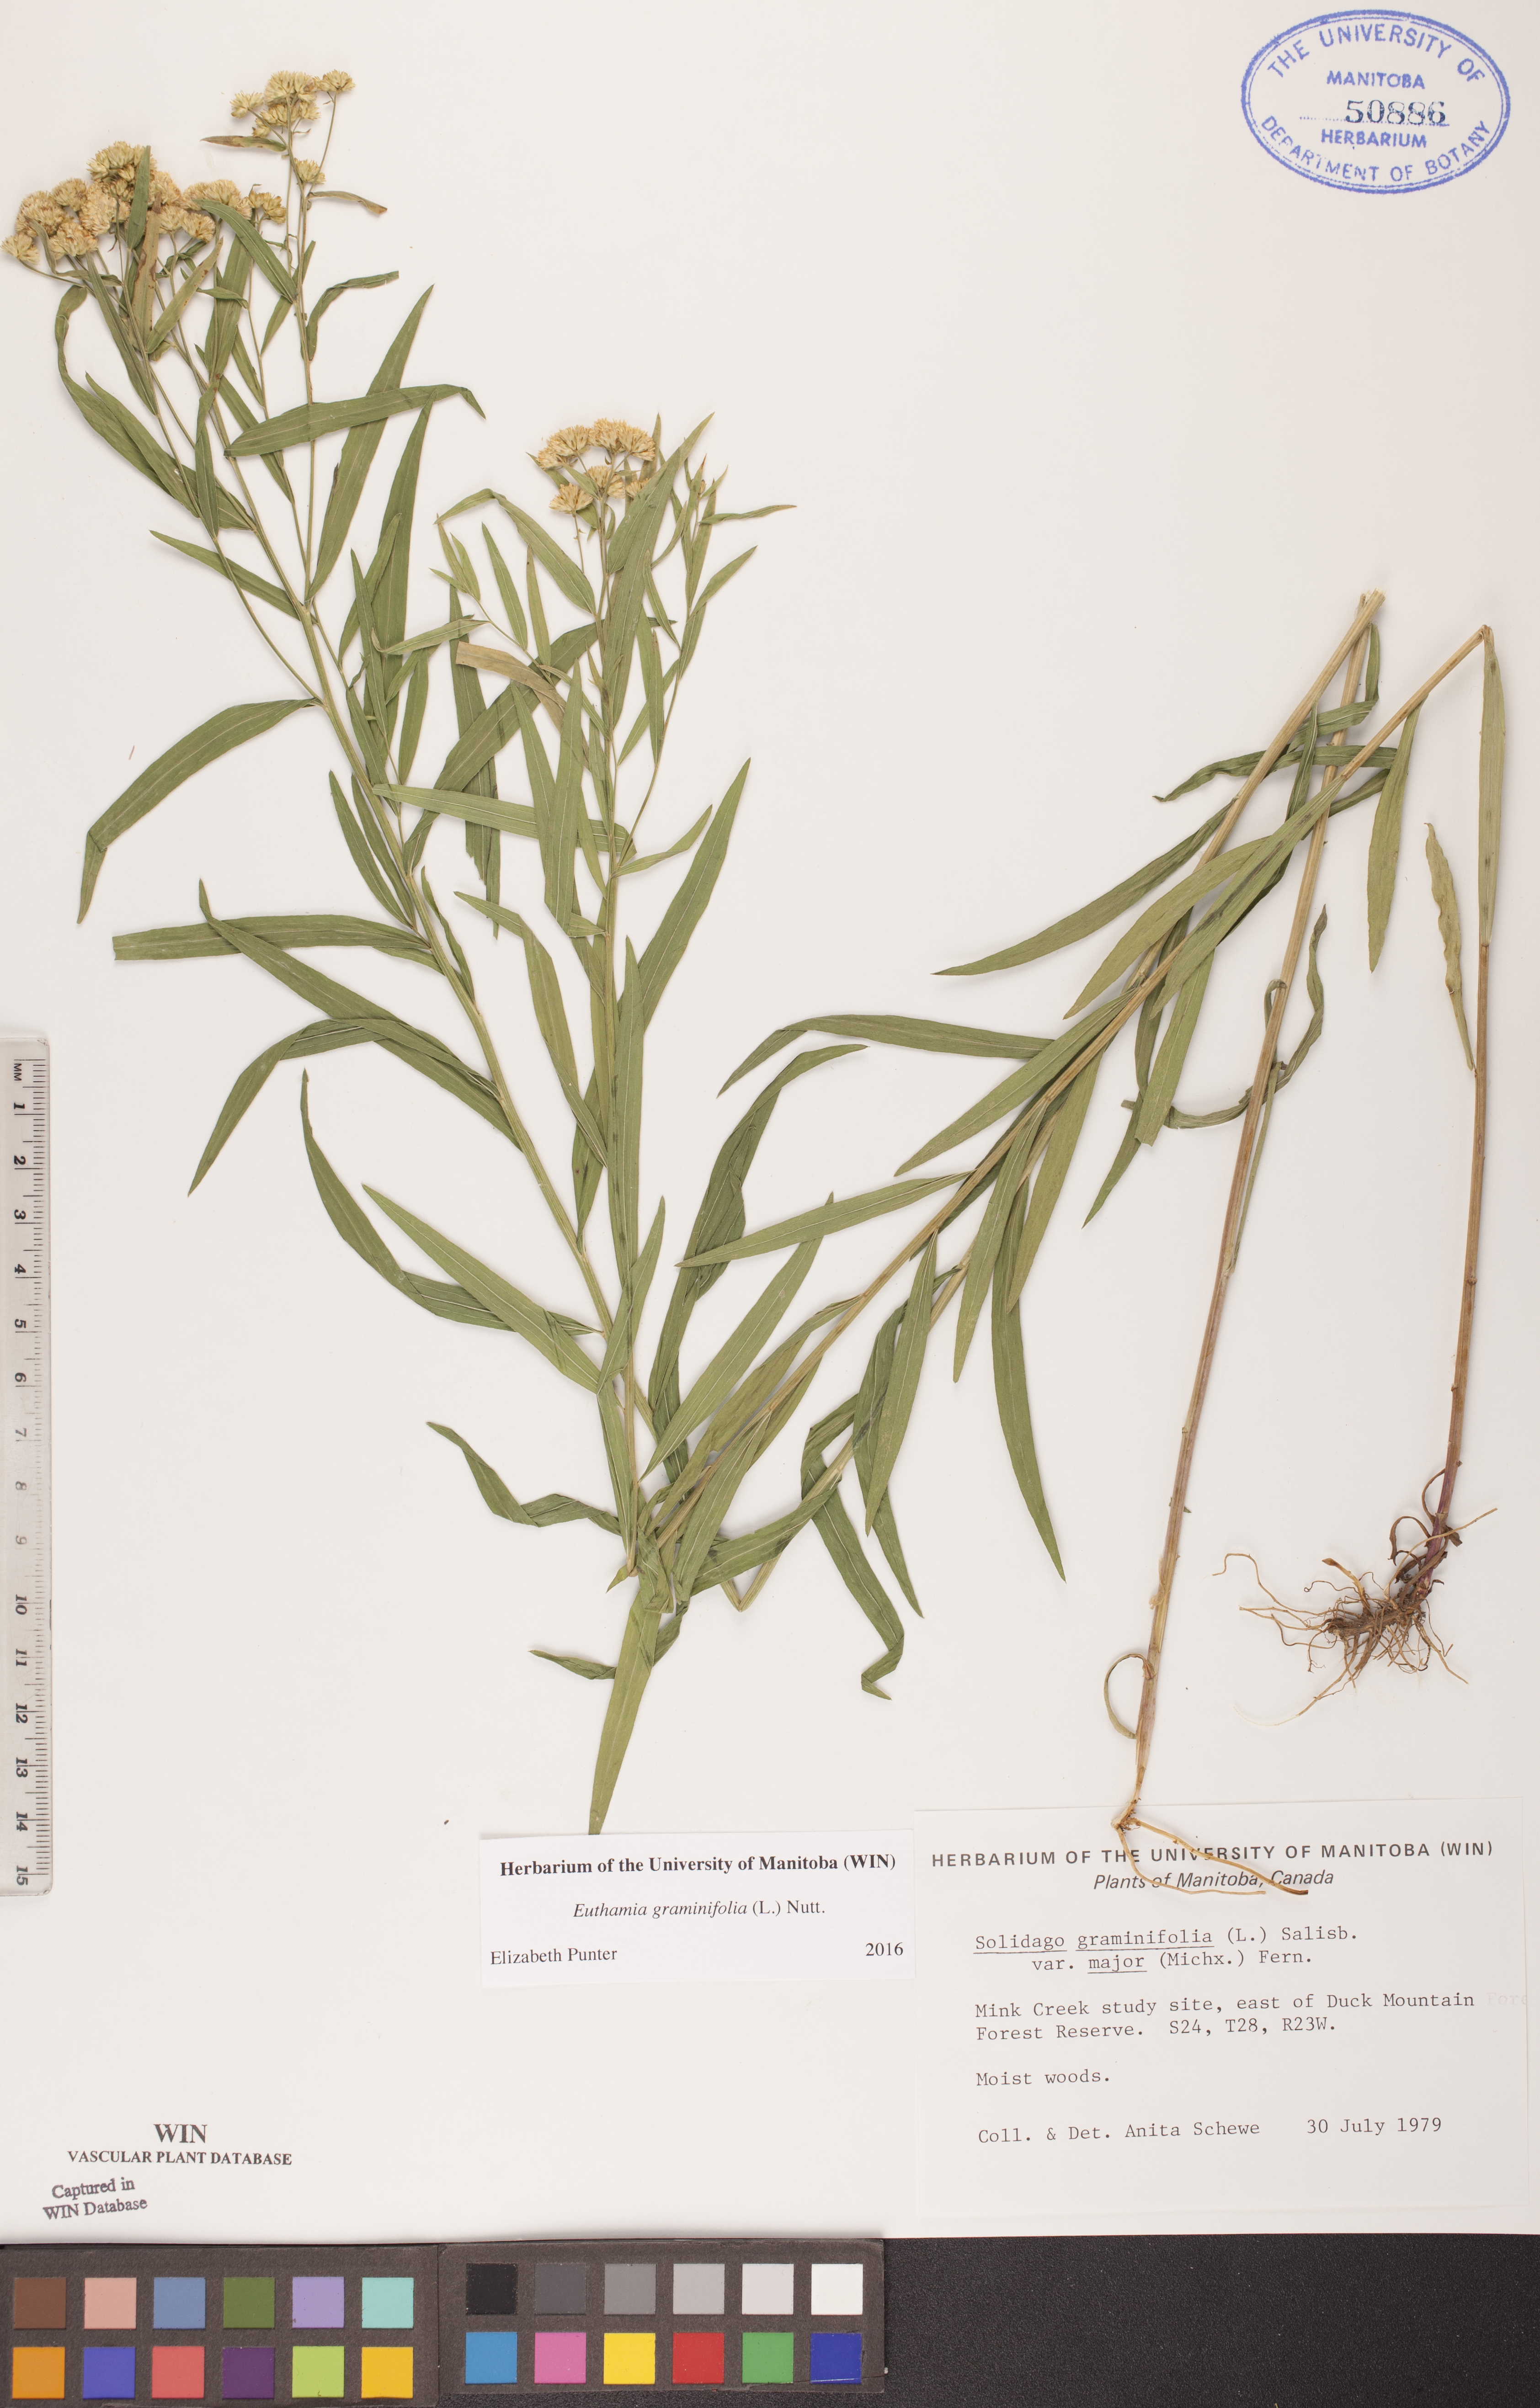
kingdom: Plantae
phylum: Tracheophyta
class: Magnoliopsida
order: Asterales
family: Asteraceae
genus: Euthamia
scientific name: Euthamia graminifolia
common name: Common goldentop
